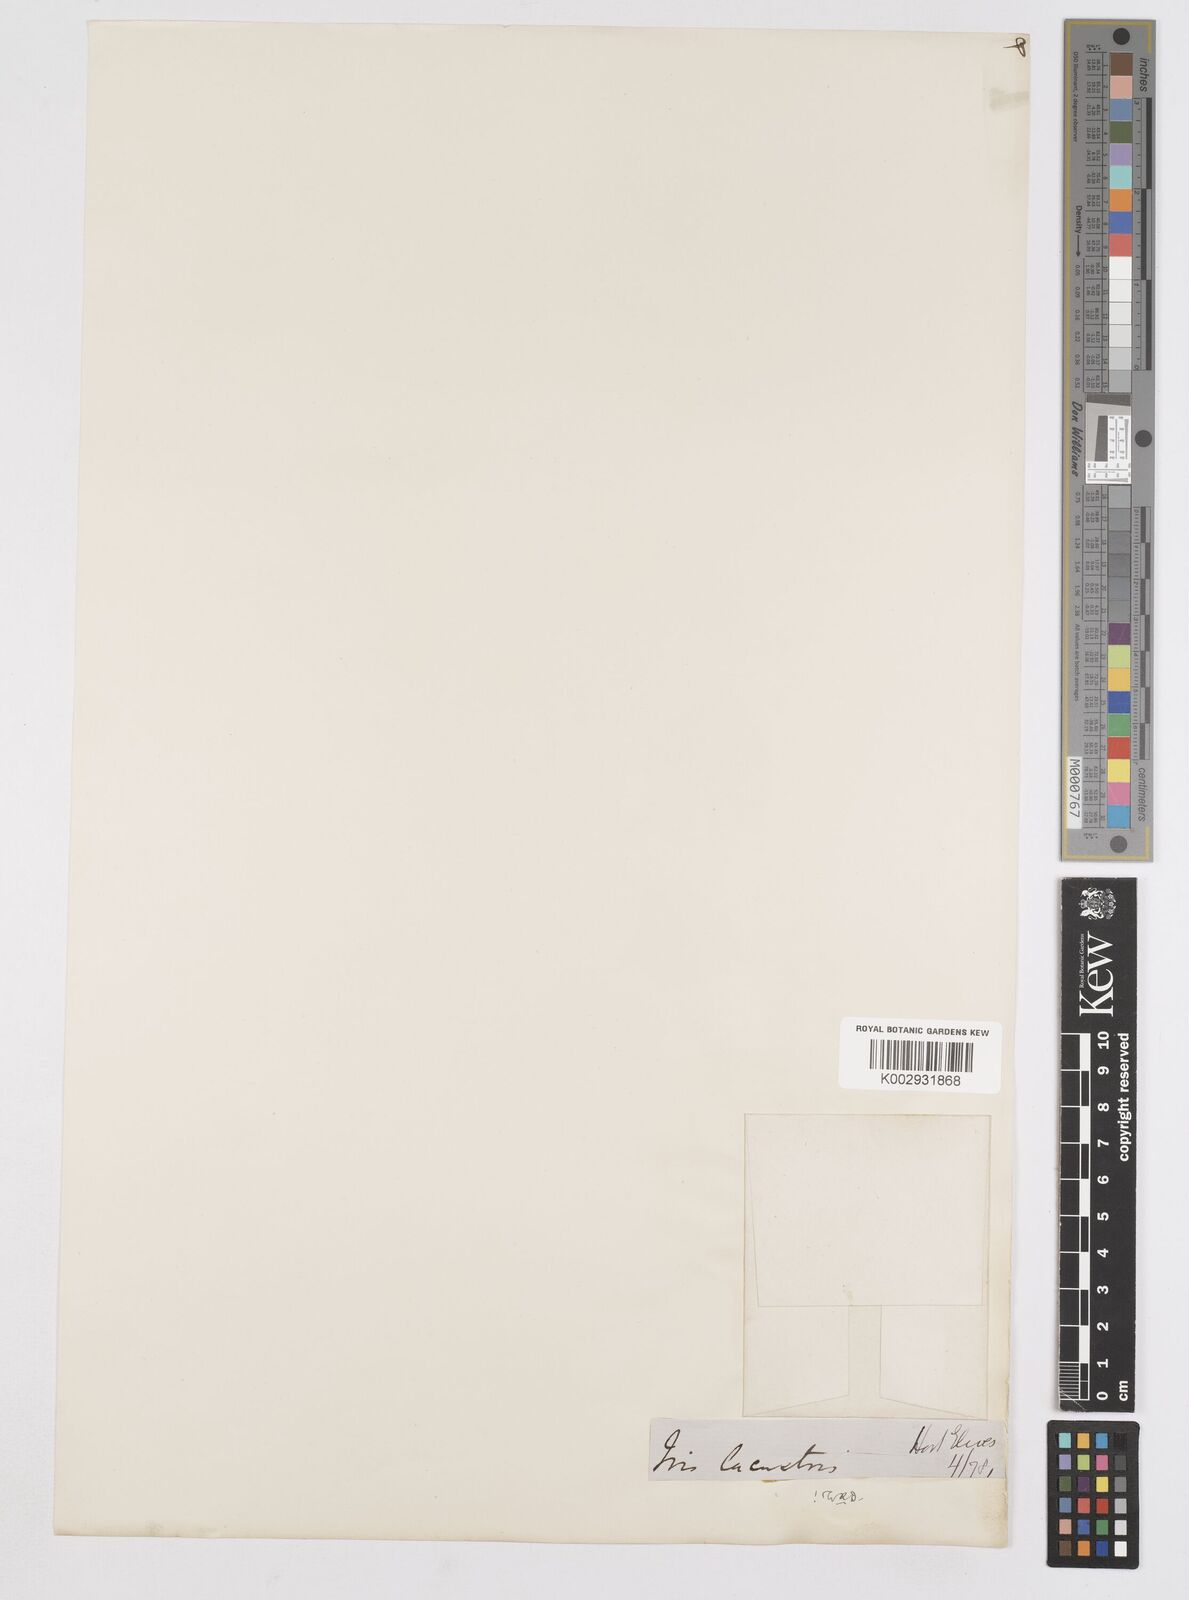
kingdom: Plantae
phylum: Tracheophyta
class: Liliopsida
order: Asparagales
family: Iridaceae
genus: Iris
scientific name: Iris lacustris
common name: Dwarf lake iris
